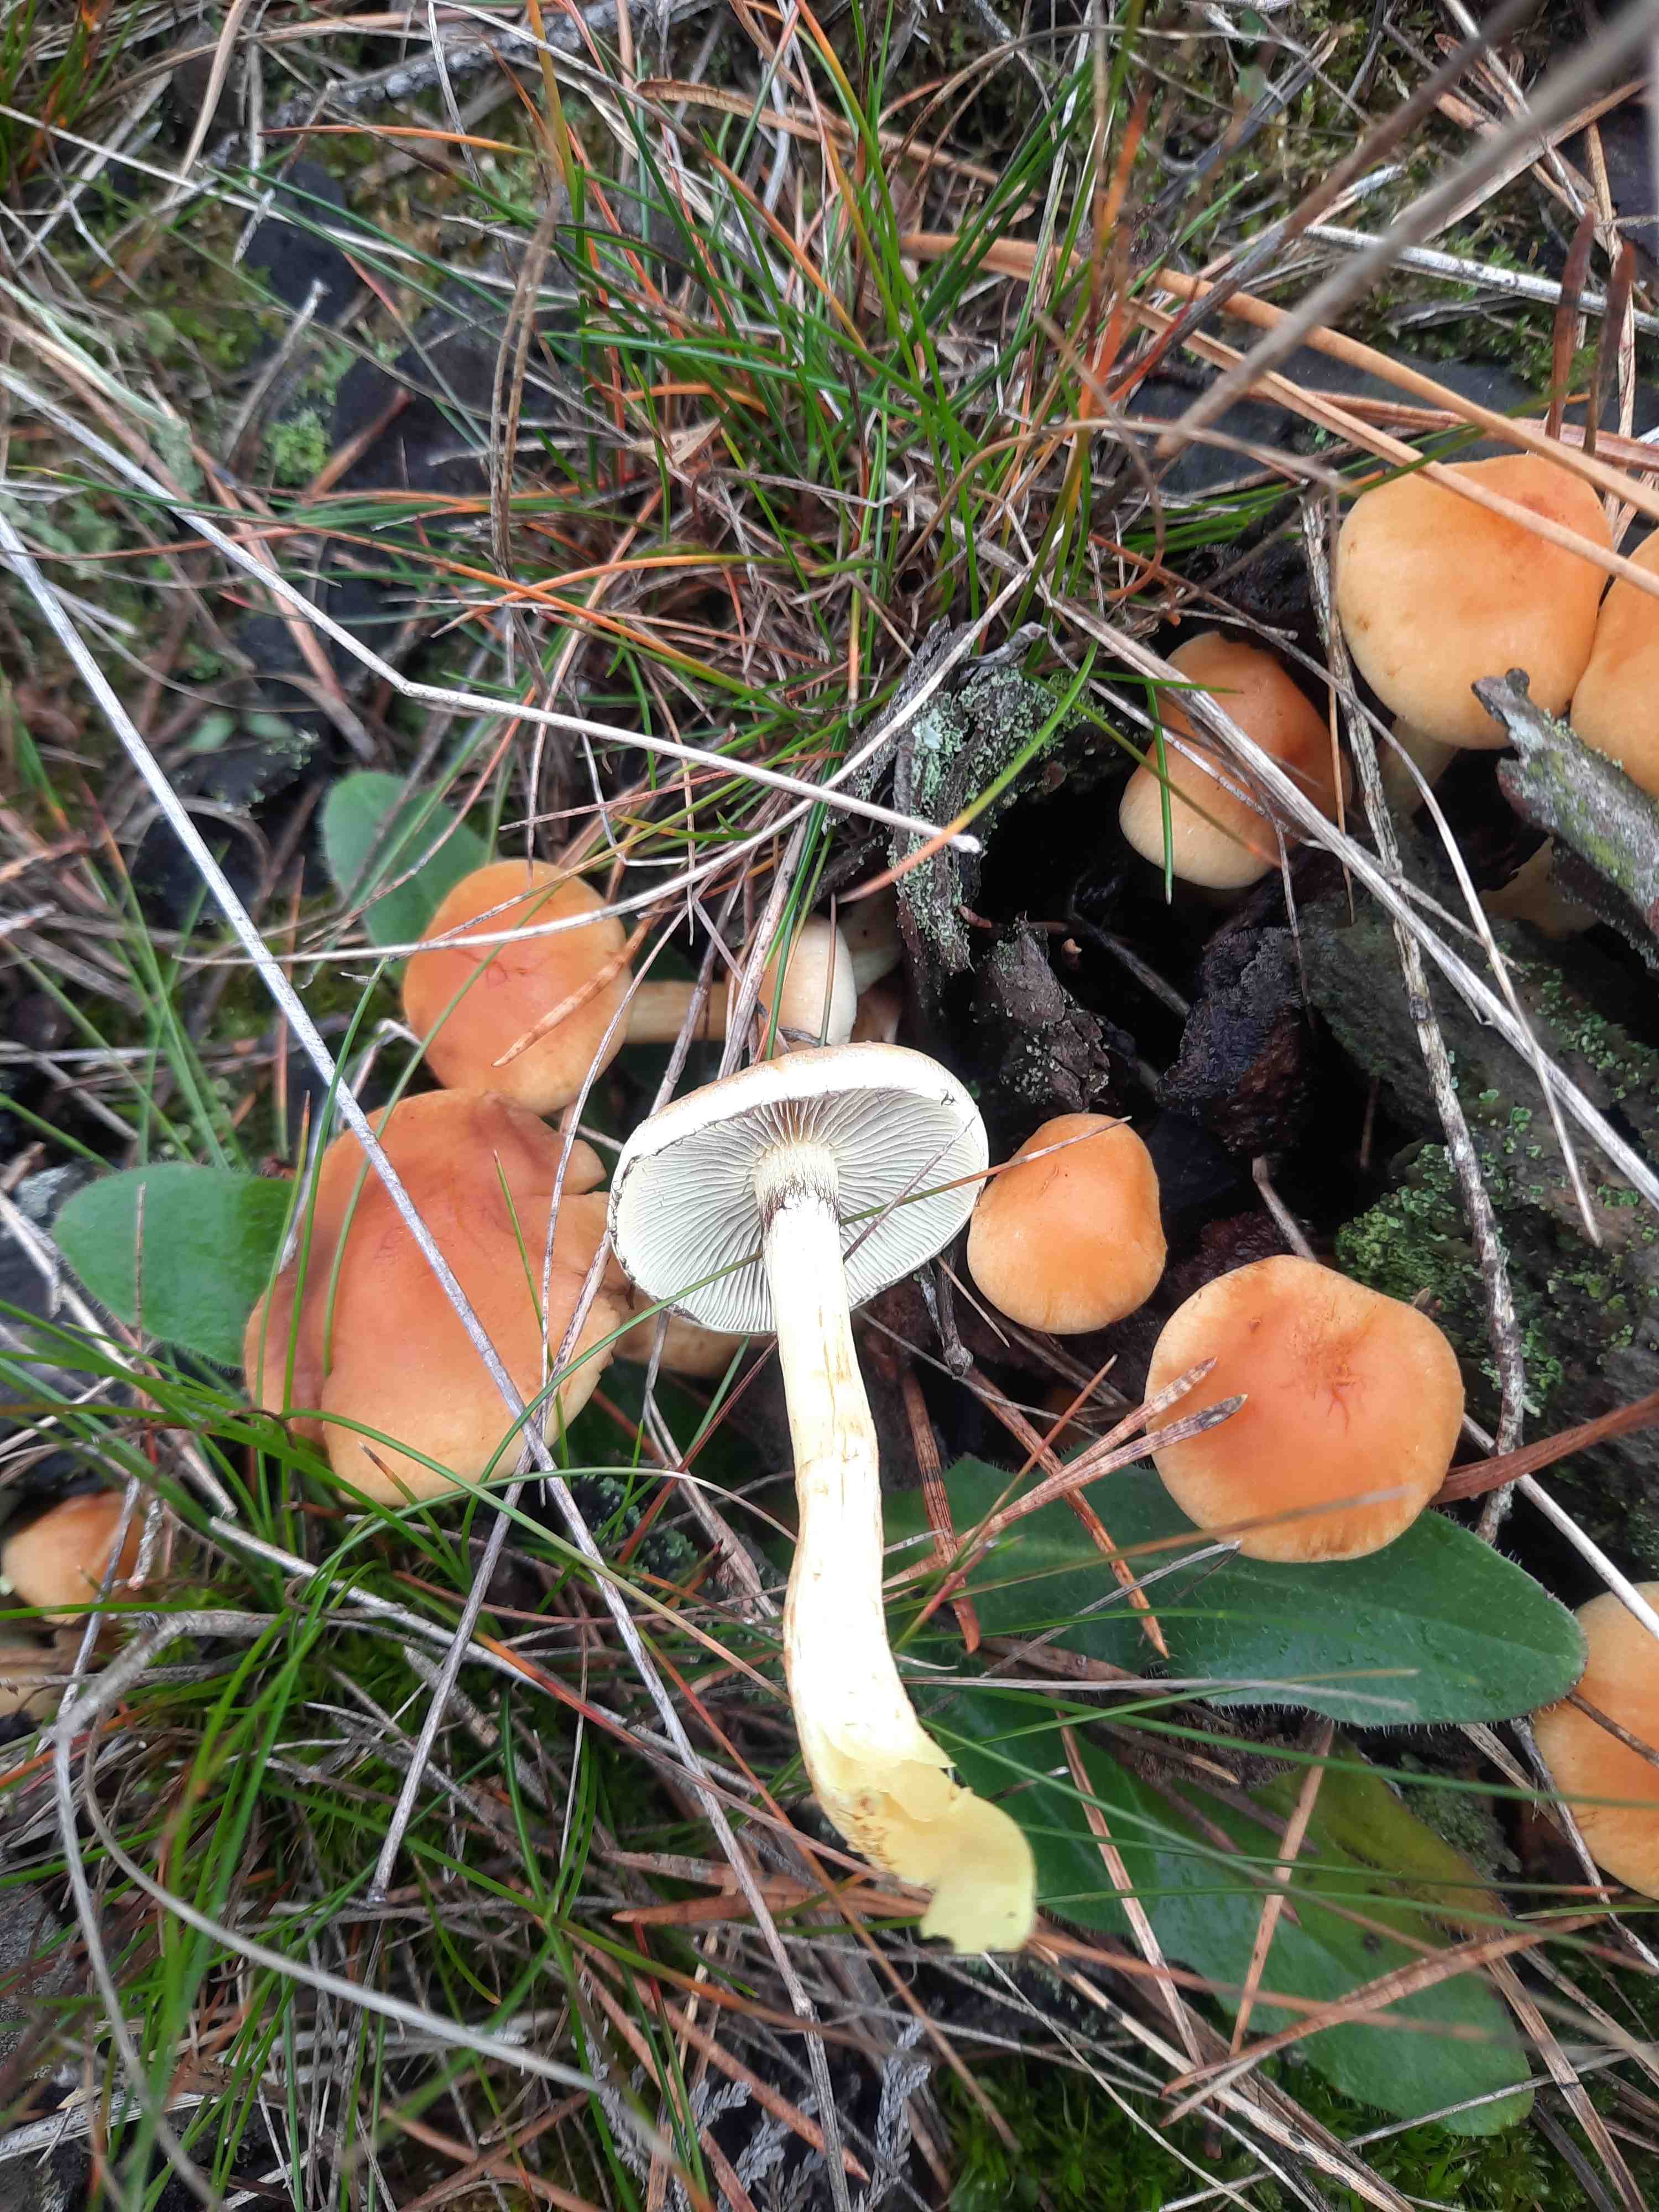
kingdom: Fungi
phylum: Basidiomycota
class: Agaricomycetes
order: Agaricales
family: Strophariaceae
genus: Hypholoma
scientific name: Hypholoma
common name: svovlhat
